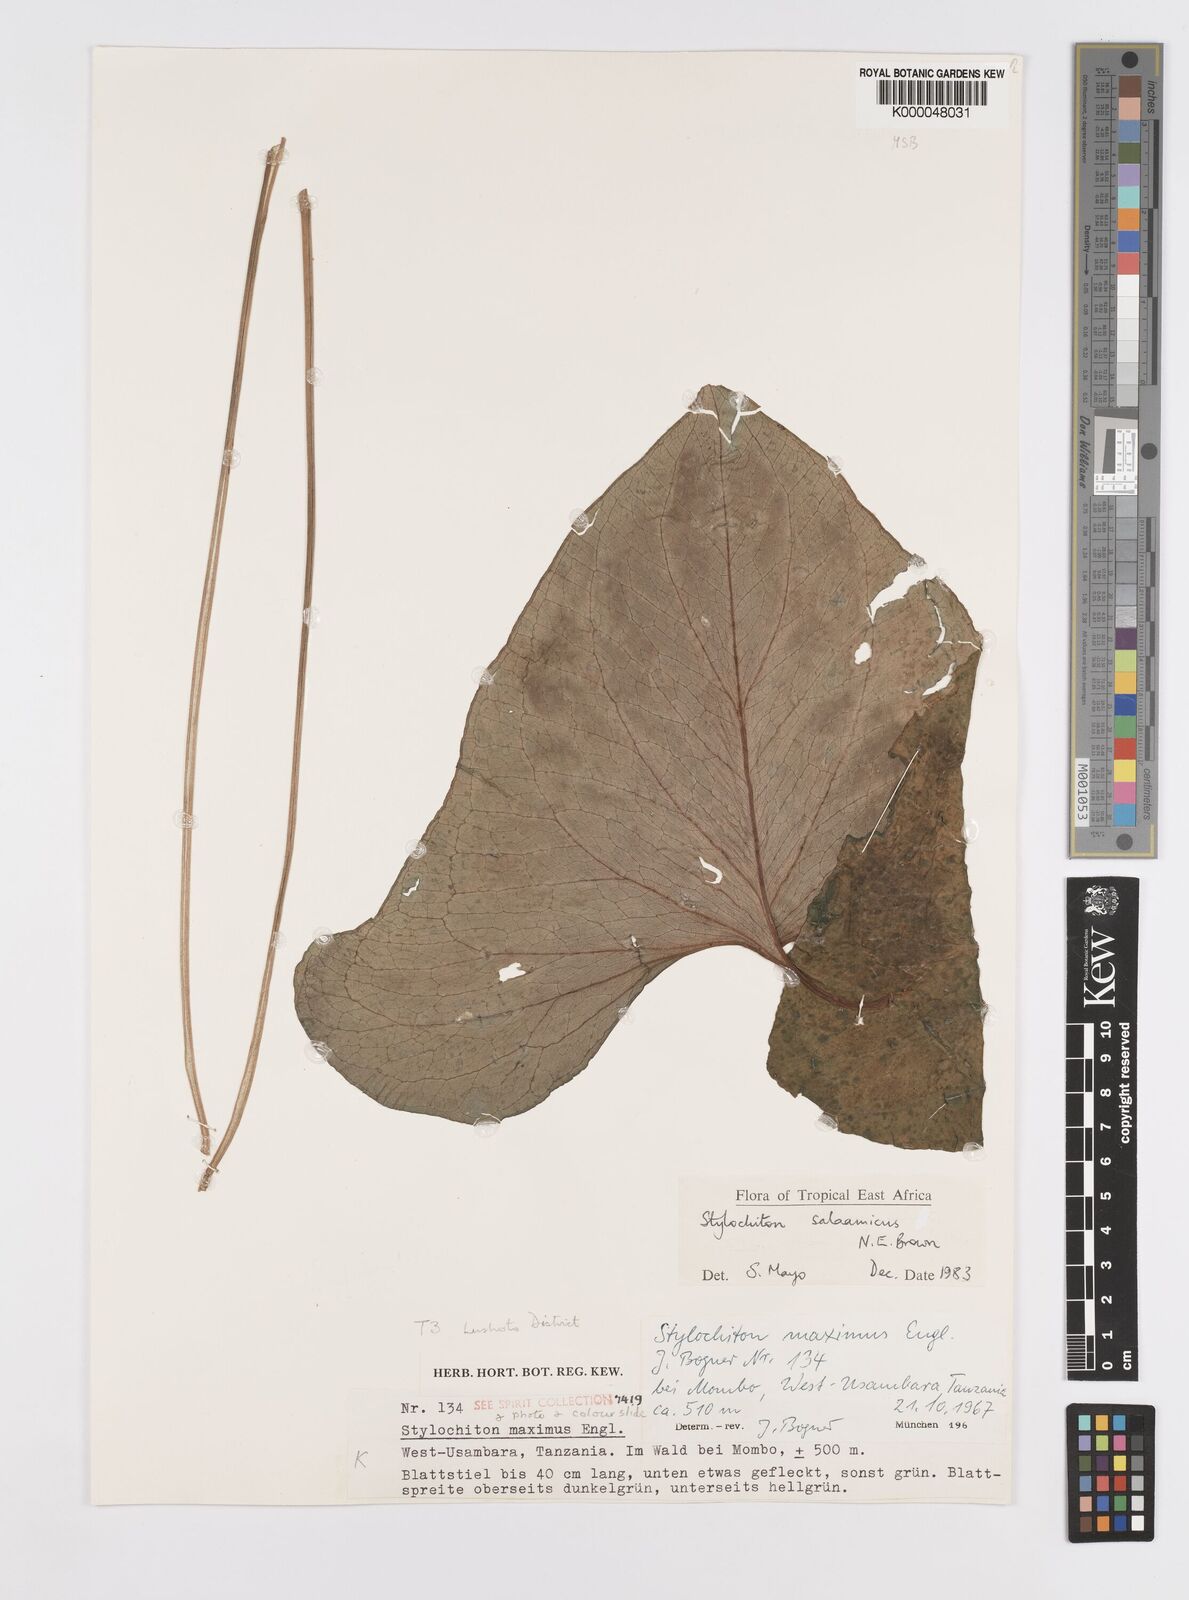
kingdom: Plantae
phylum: Tracheophyta
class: Liliopsida
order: Alismatales
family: Araceae
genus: Stylochaeton
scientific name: Stylochaeton salaamicum
